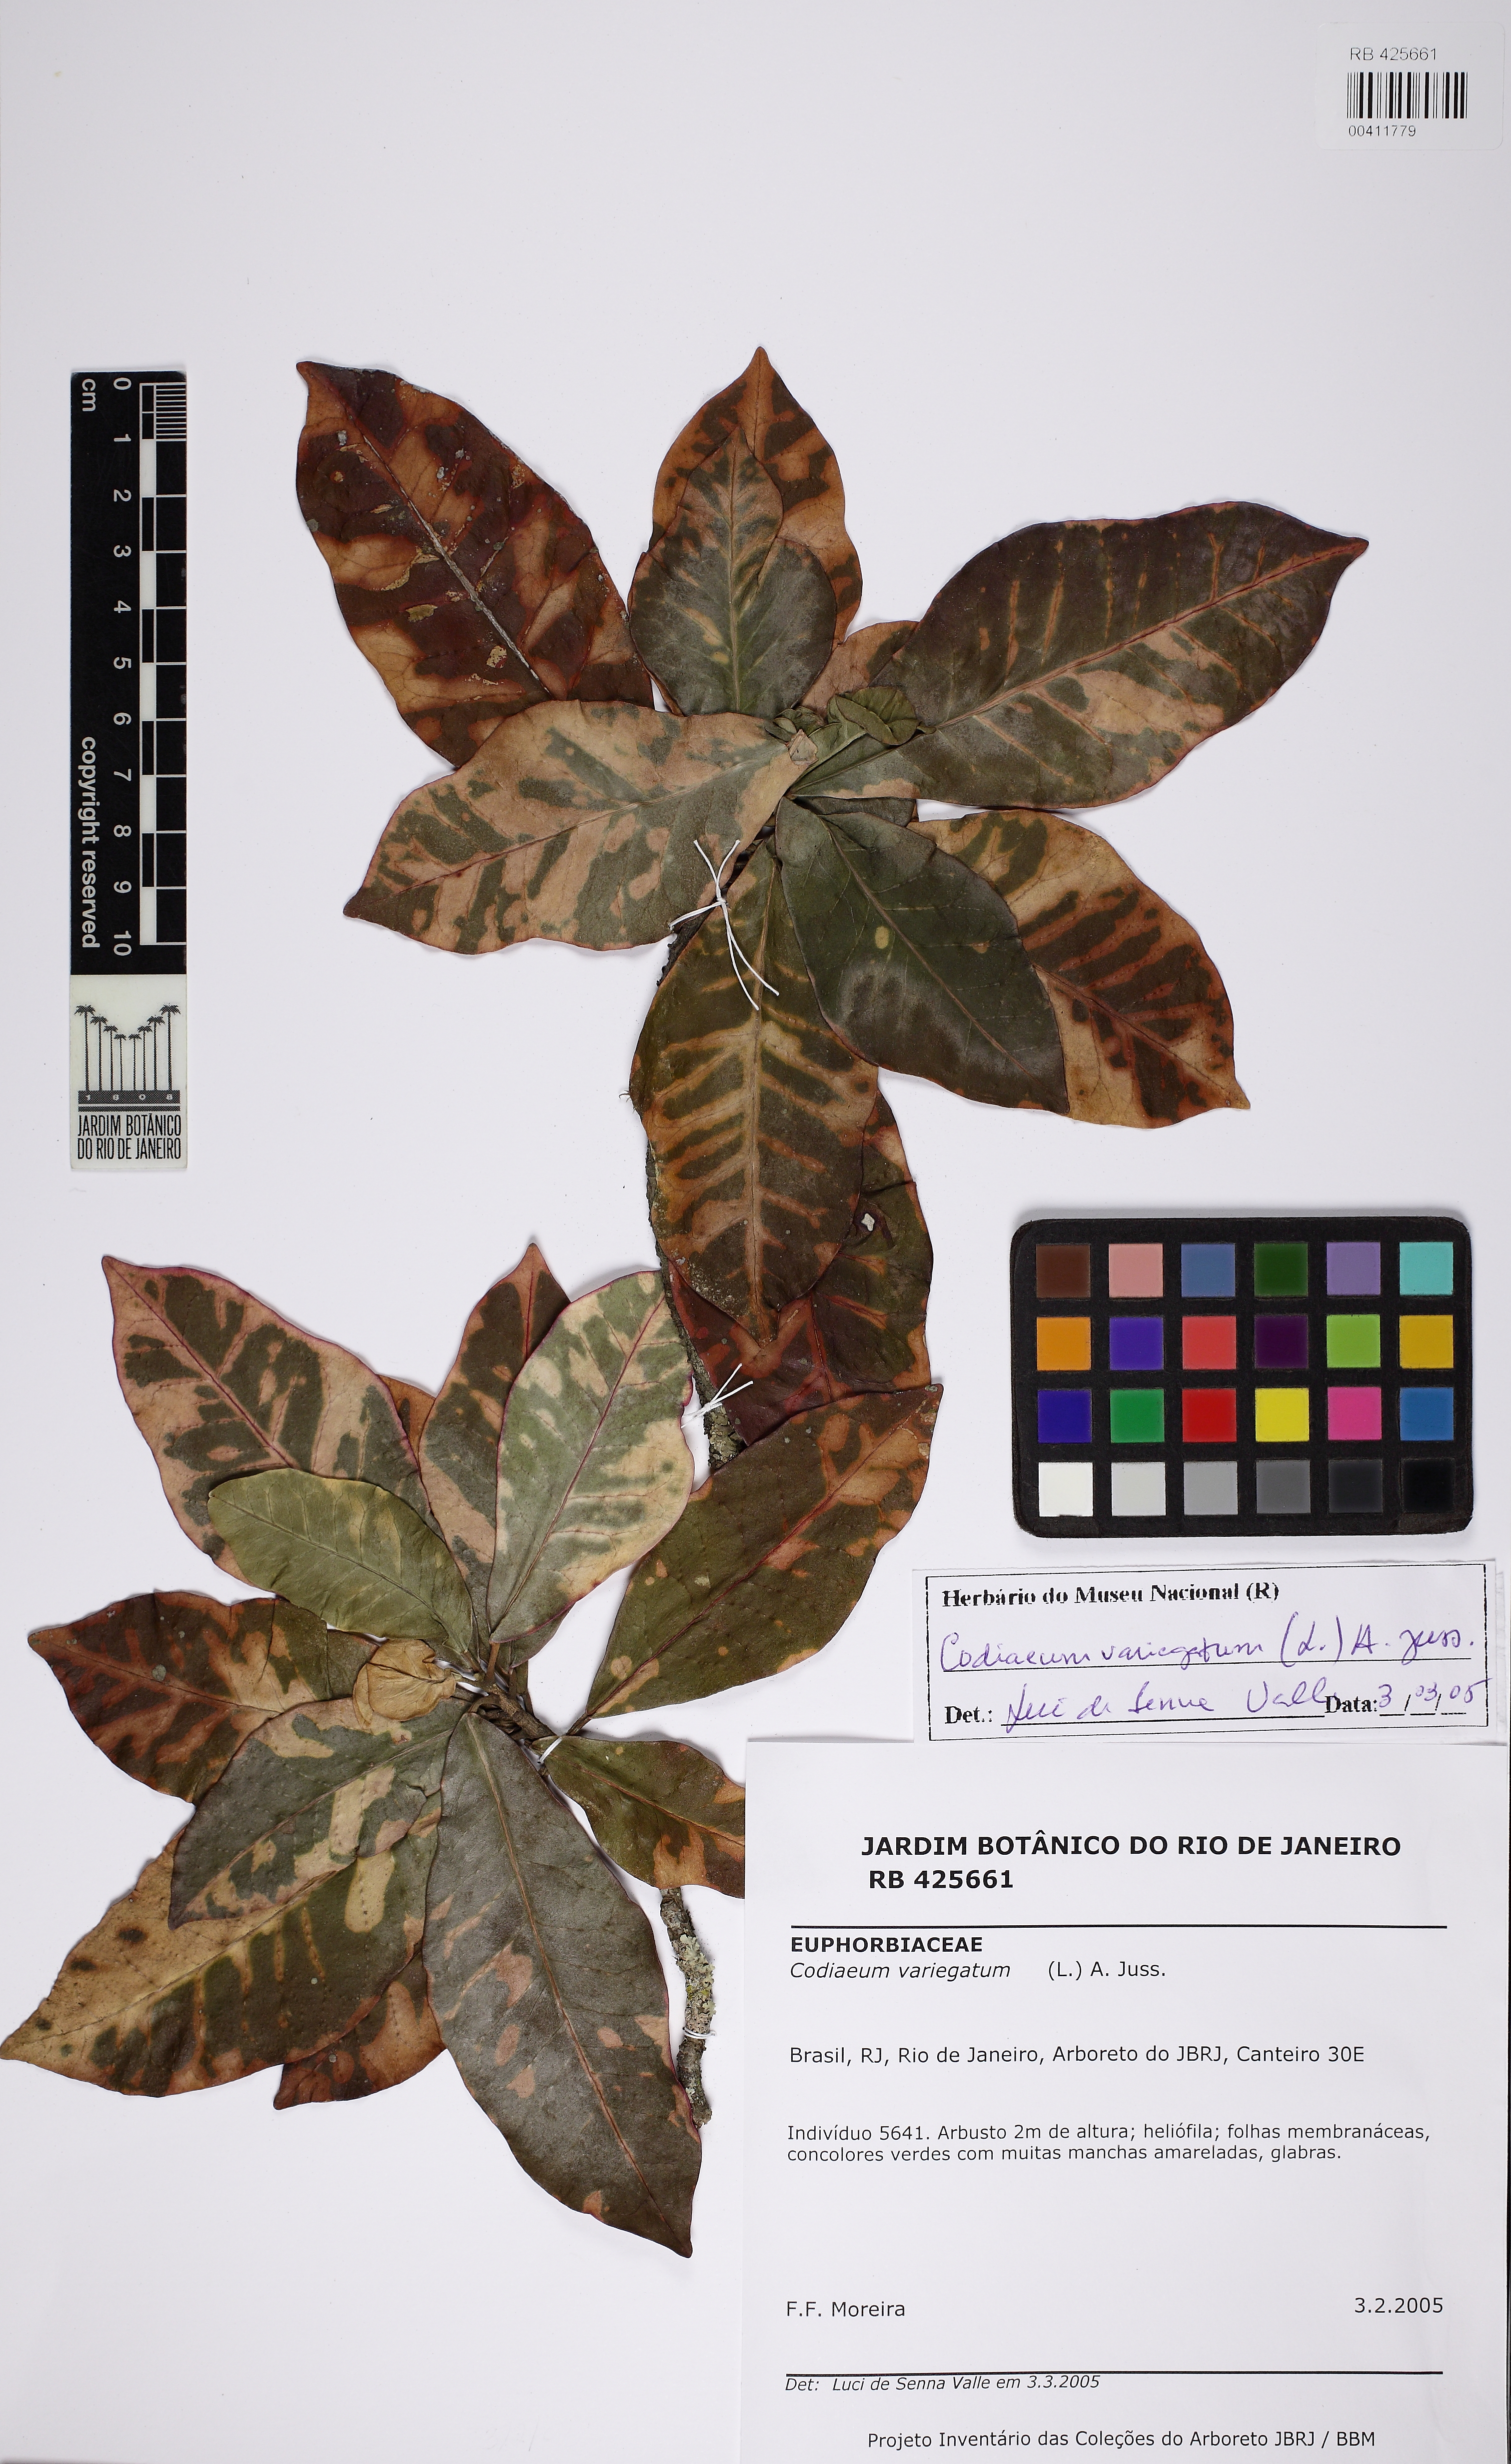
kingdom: Plantae
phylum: Tracheophyta
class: Magnoliopsida
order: Malpighiales
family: Euphorbiaceae
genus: Codiaeum
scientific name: Codiaeum variegatum
